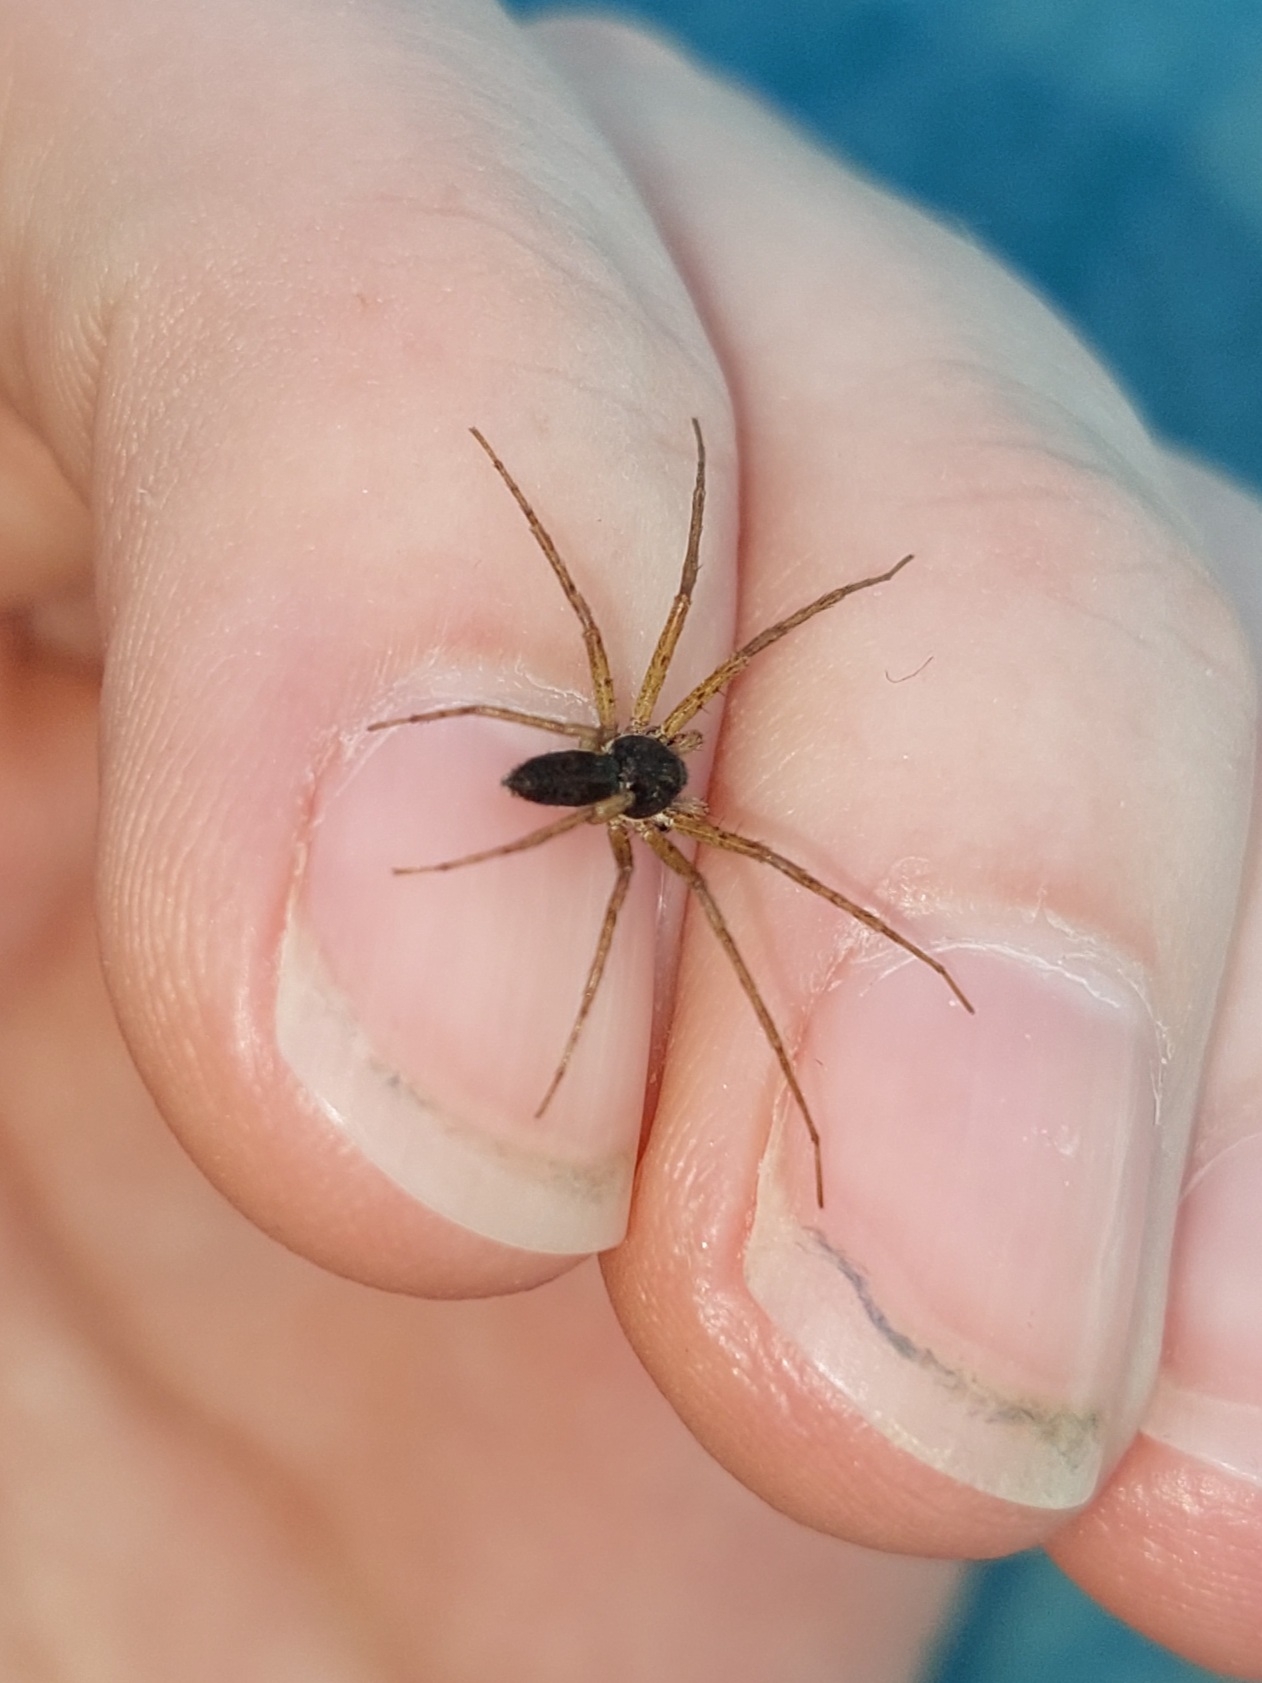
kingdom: Animalia
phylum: Arthropoda
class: Arachnida
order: Araneae
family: Philodromidae
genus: Philodromus
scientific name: Philodromus dispar
